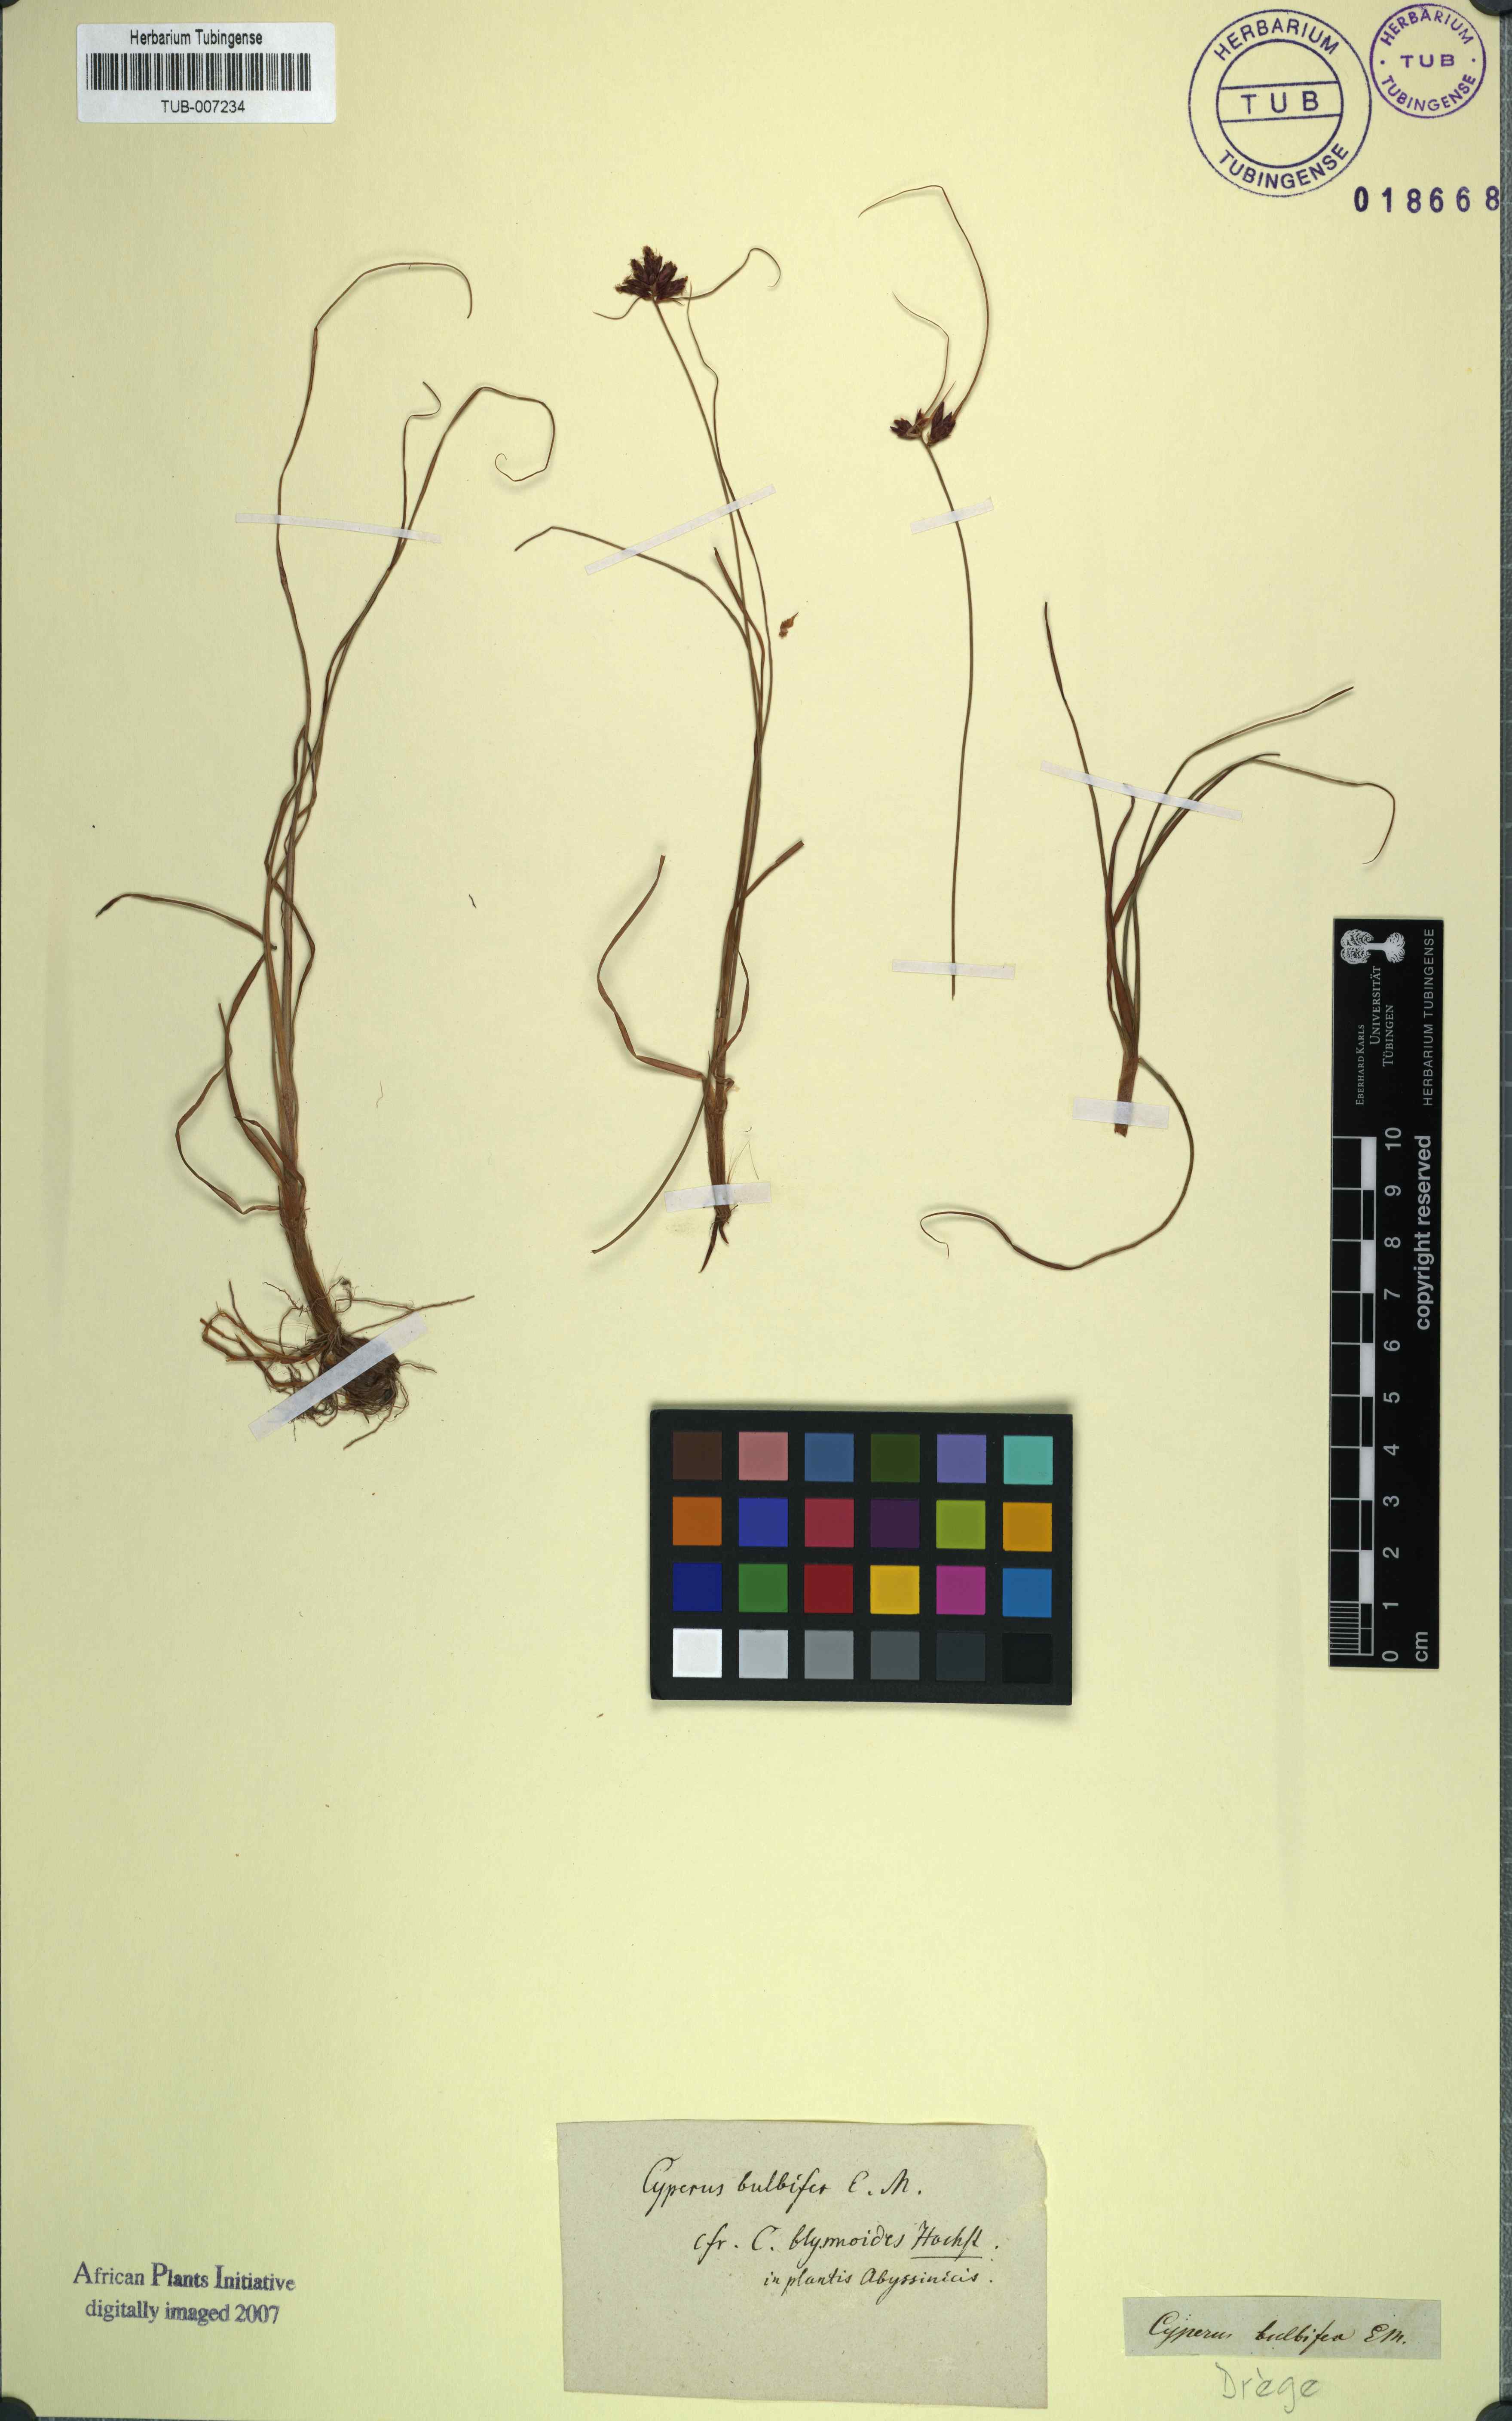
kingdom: Plantae
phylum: Tracheophyta
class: Liliopsida
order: Poales
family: Cyperaceae
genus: Cyperus
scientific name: Cyperus usitatus
